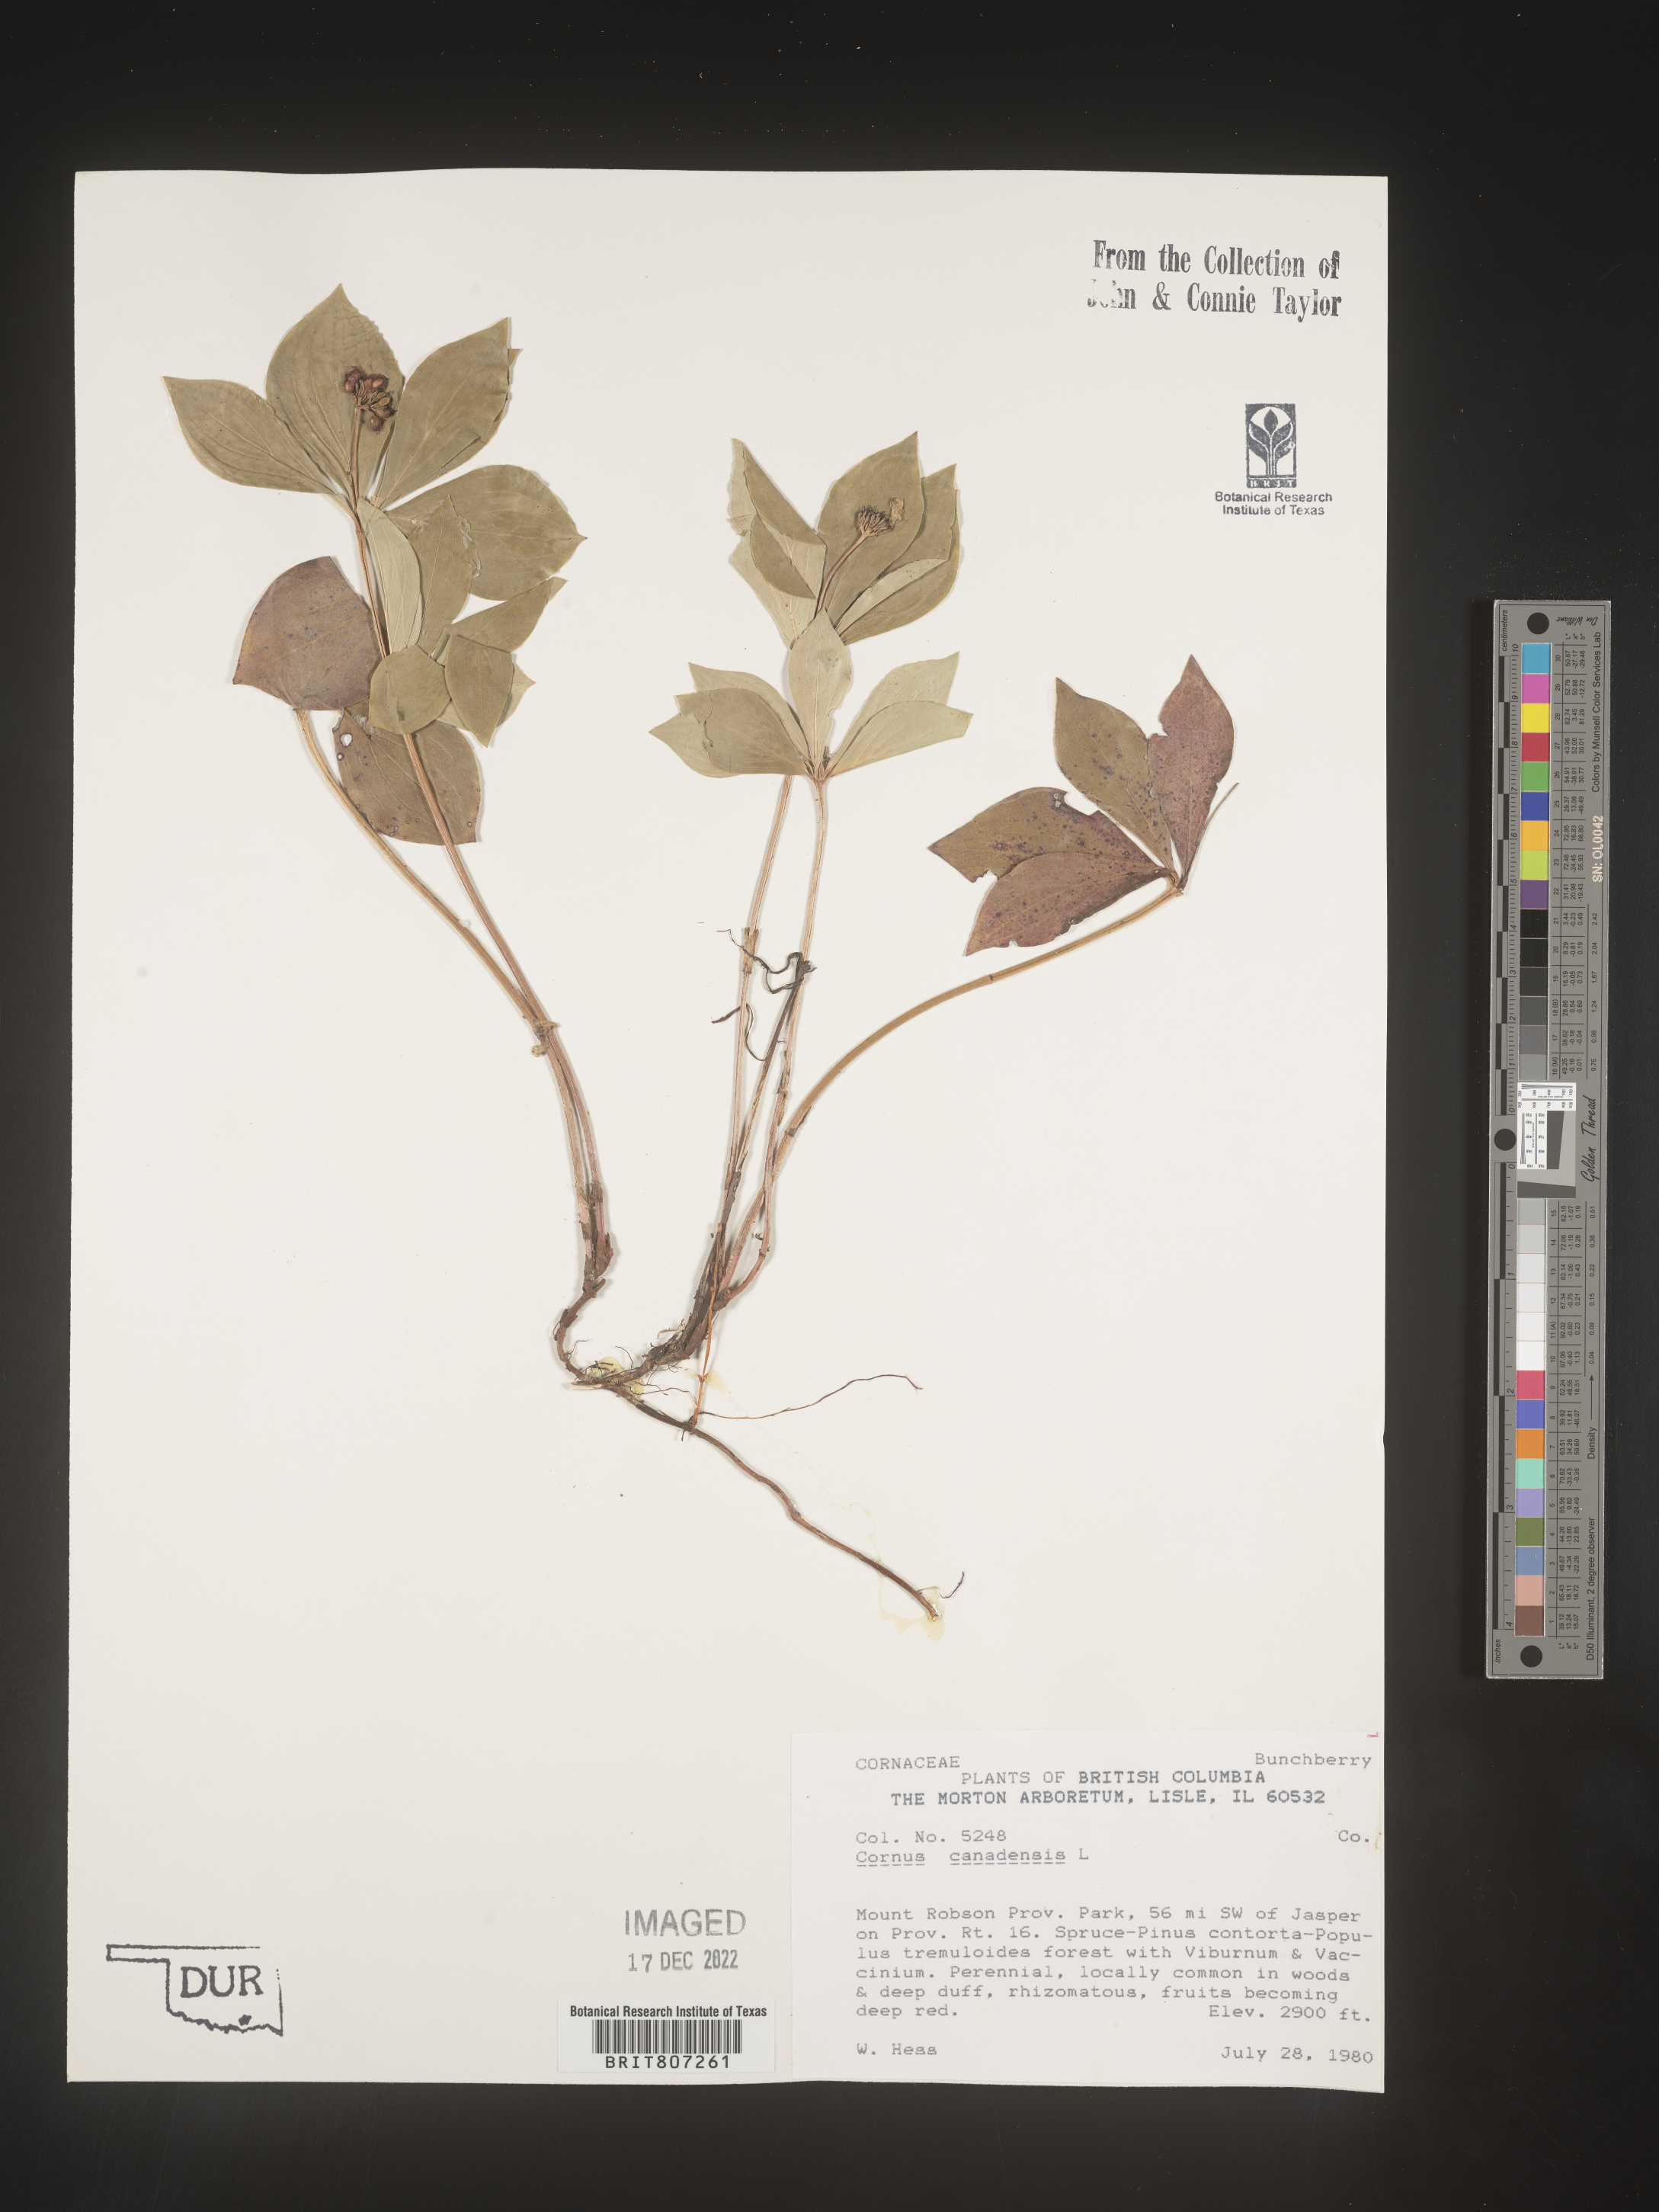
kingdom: Plantae
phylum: Tracheophyta
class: Magnoliopsida
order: Cornales
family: Cornaceae
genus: Cornus
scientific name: Cornus canadensis
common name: Creeping dogwood
